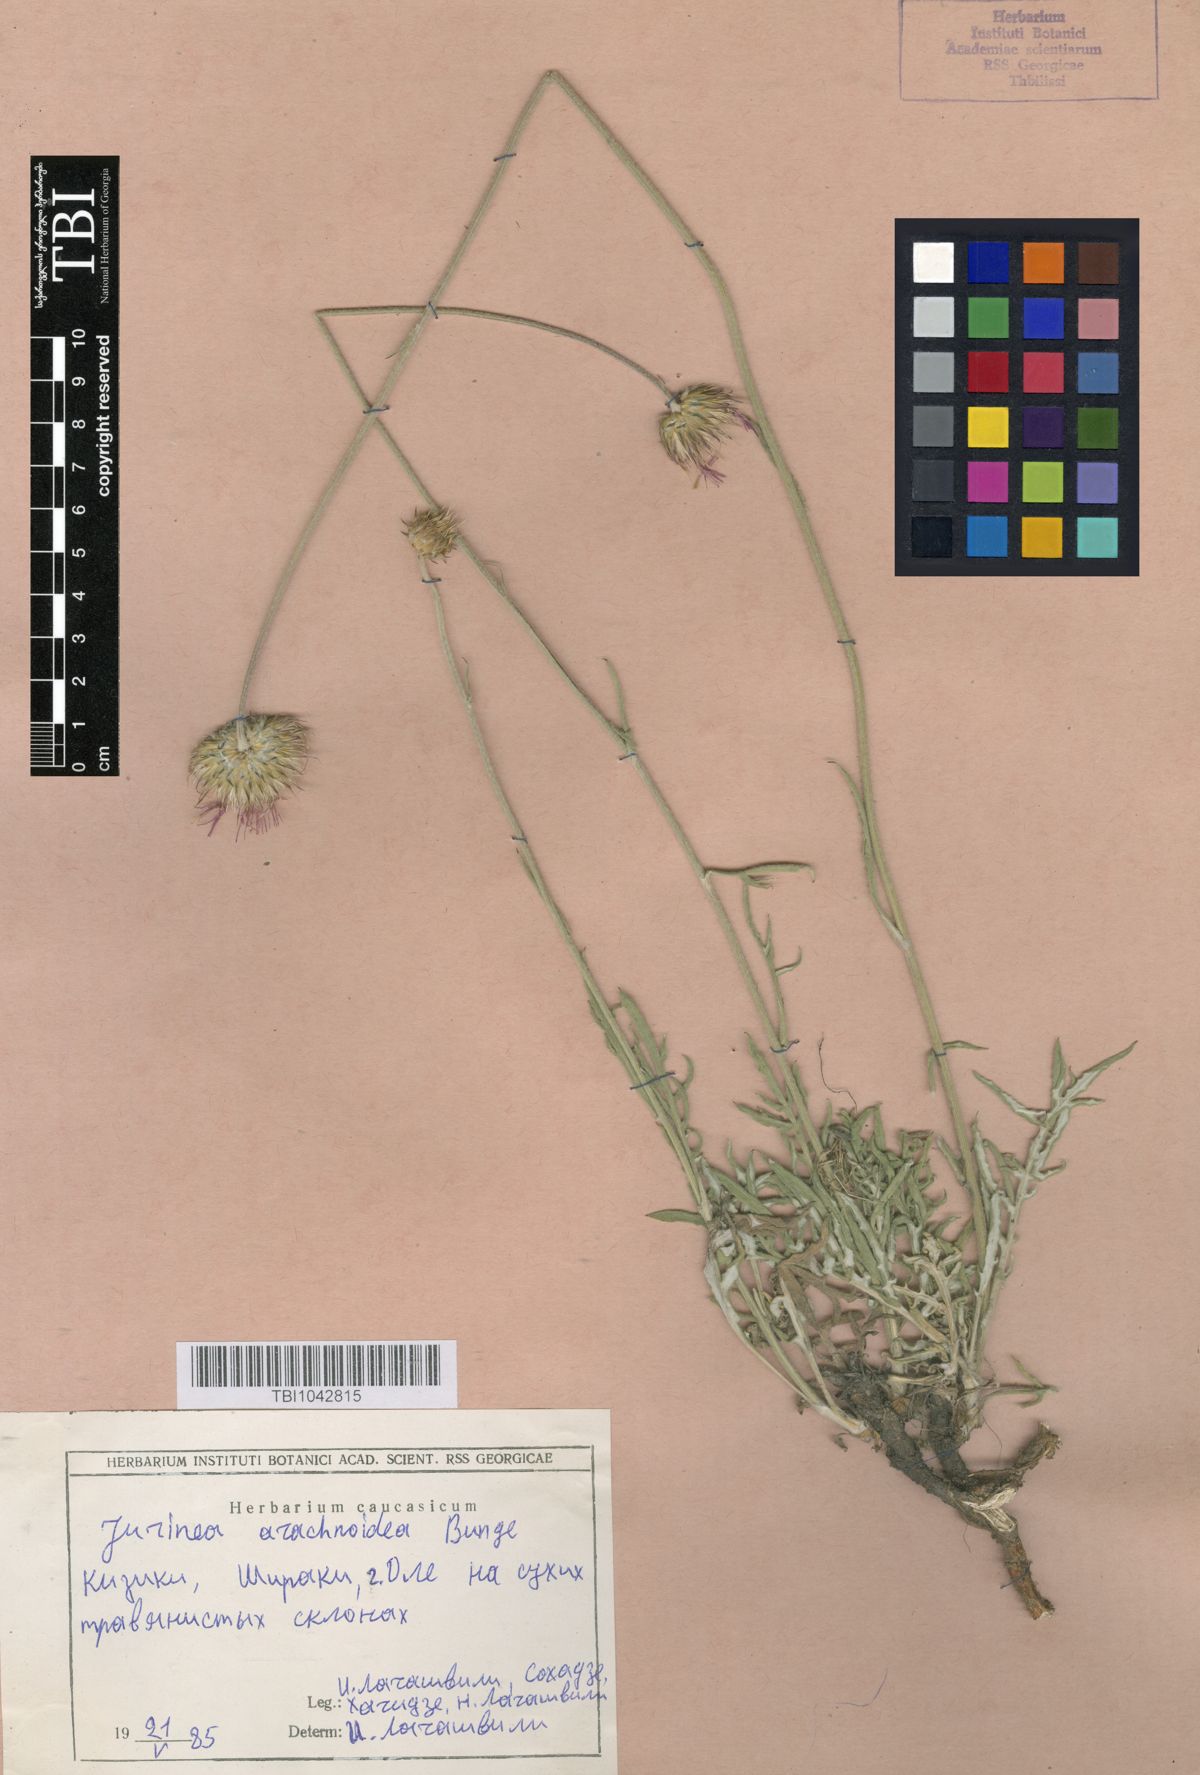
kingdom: Plantae
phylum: Tracheophyta
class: Magnoliopsida
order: Asterales
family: Asteraceae
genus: Jurinea
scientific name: Jurinea blanda
